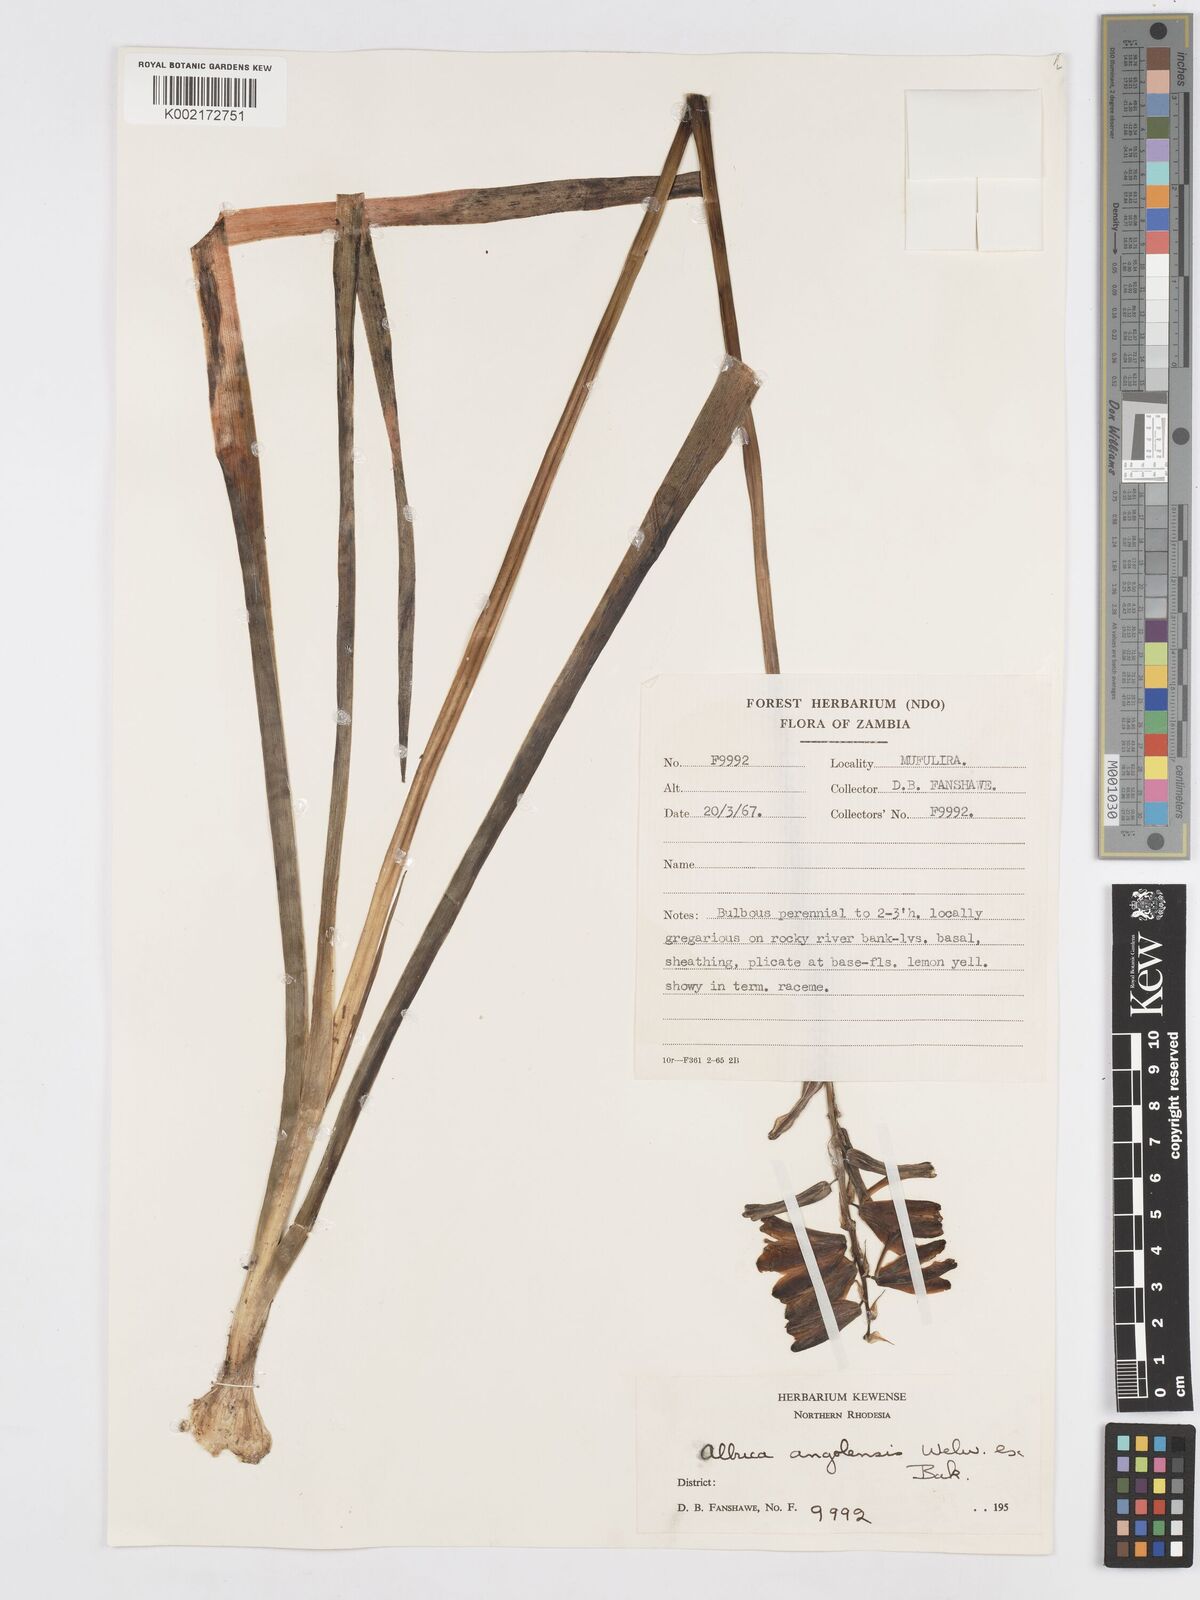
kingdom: Plantae
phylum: Tracheophyta
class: Liliopsida
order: Asparagales
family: Asparagaceae
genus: Albuca
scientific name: Albuca abyssinica
